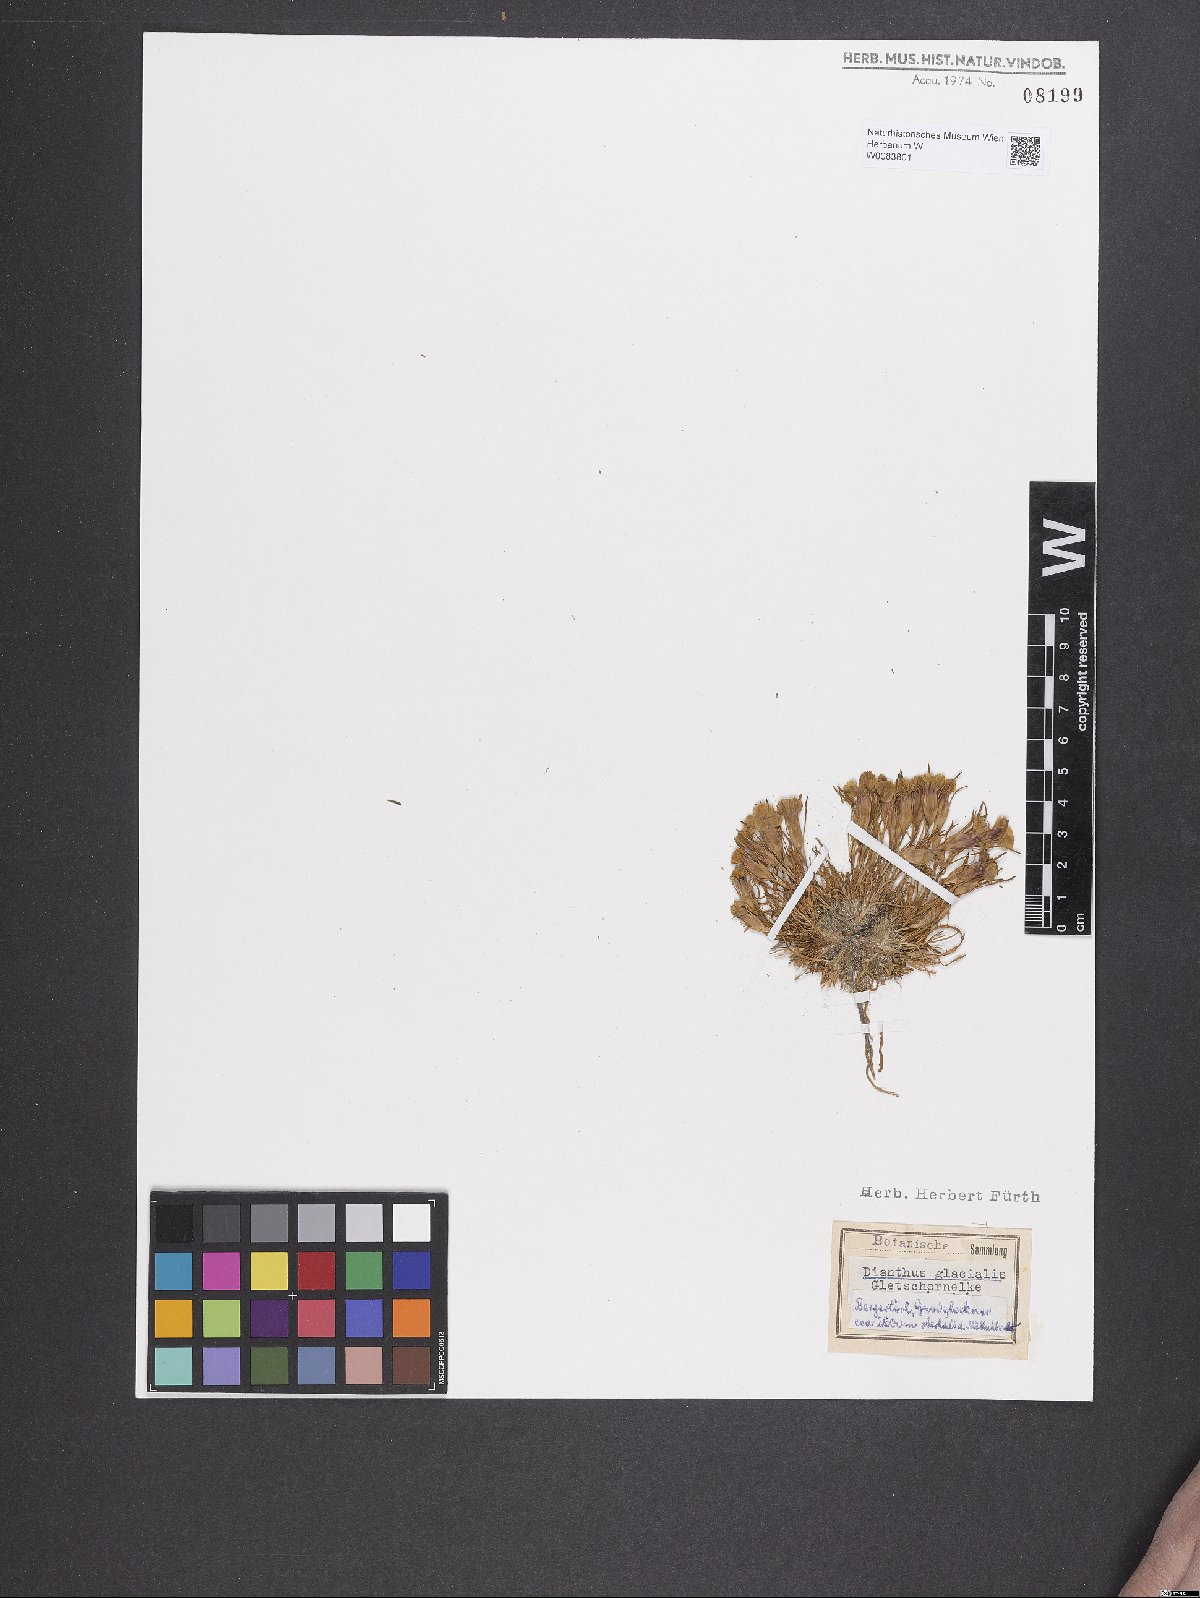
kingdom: Plantae
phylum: Tracheophyta
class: Magnoliopsida
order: Caryophyllales
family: Caryophyllaceae
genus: Dianthus
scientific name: Dianthus glacialis
